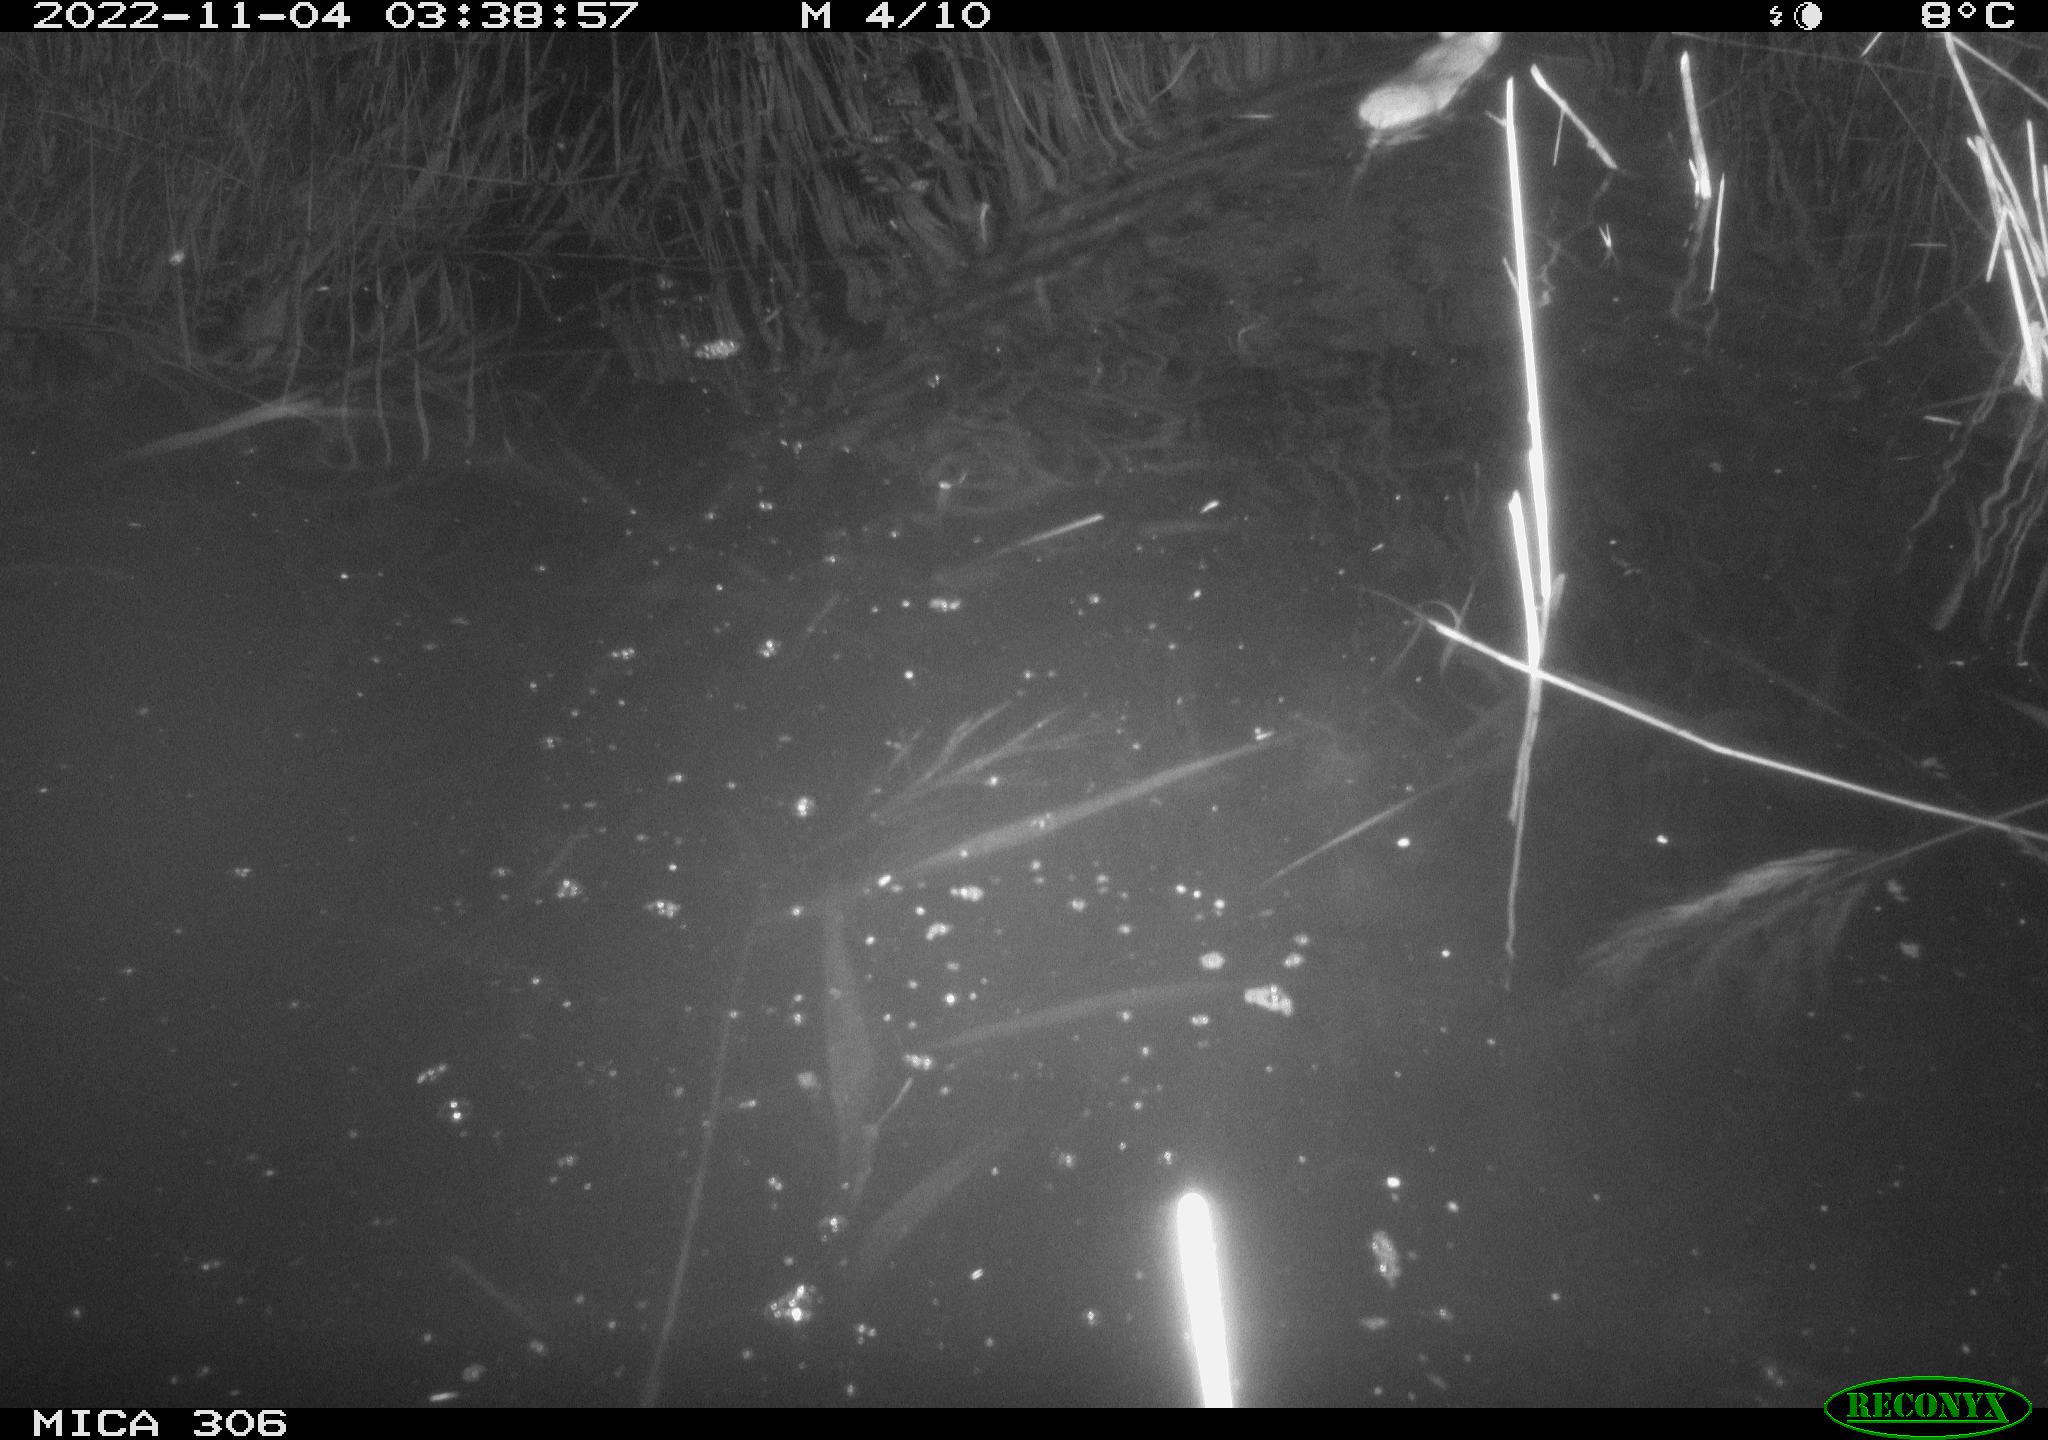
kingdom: Animalia
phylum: Chordata
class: Mammalia
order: Rodentia
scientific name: Rodentia
